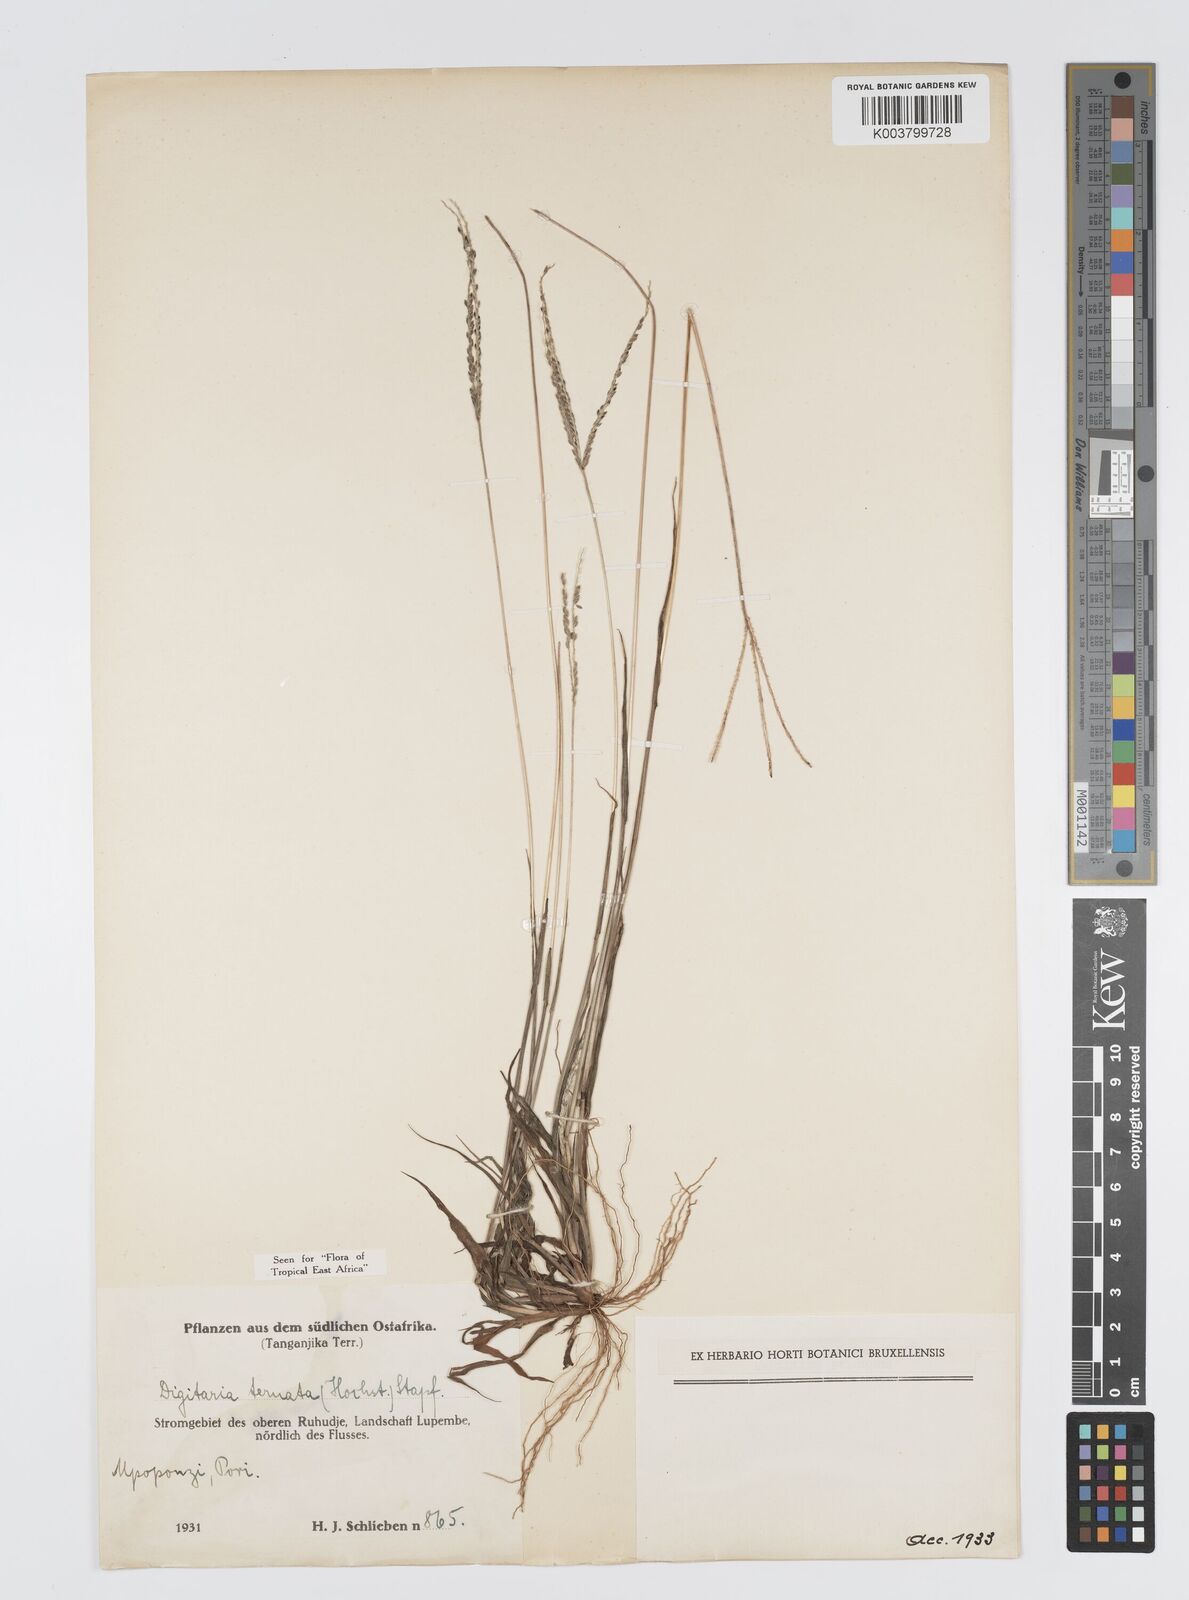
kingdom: Plantae
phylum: Tracheophyta
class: Liliopsida
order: Poales
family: Poaceae
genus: Digitaria
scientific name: Digitaria ternata
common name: Blackseed crabgrass
